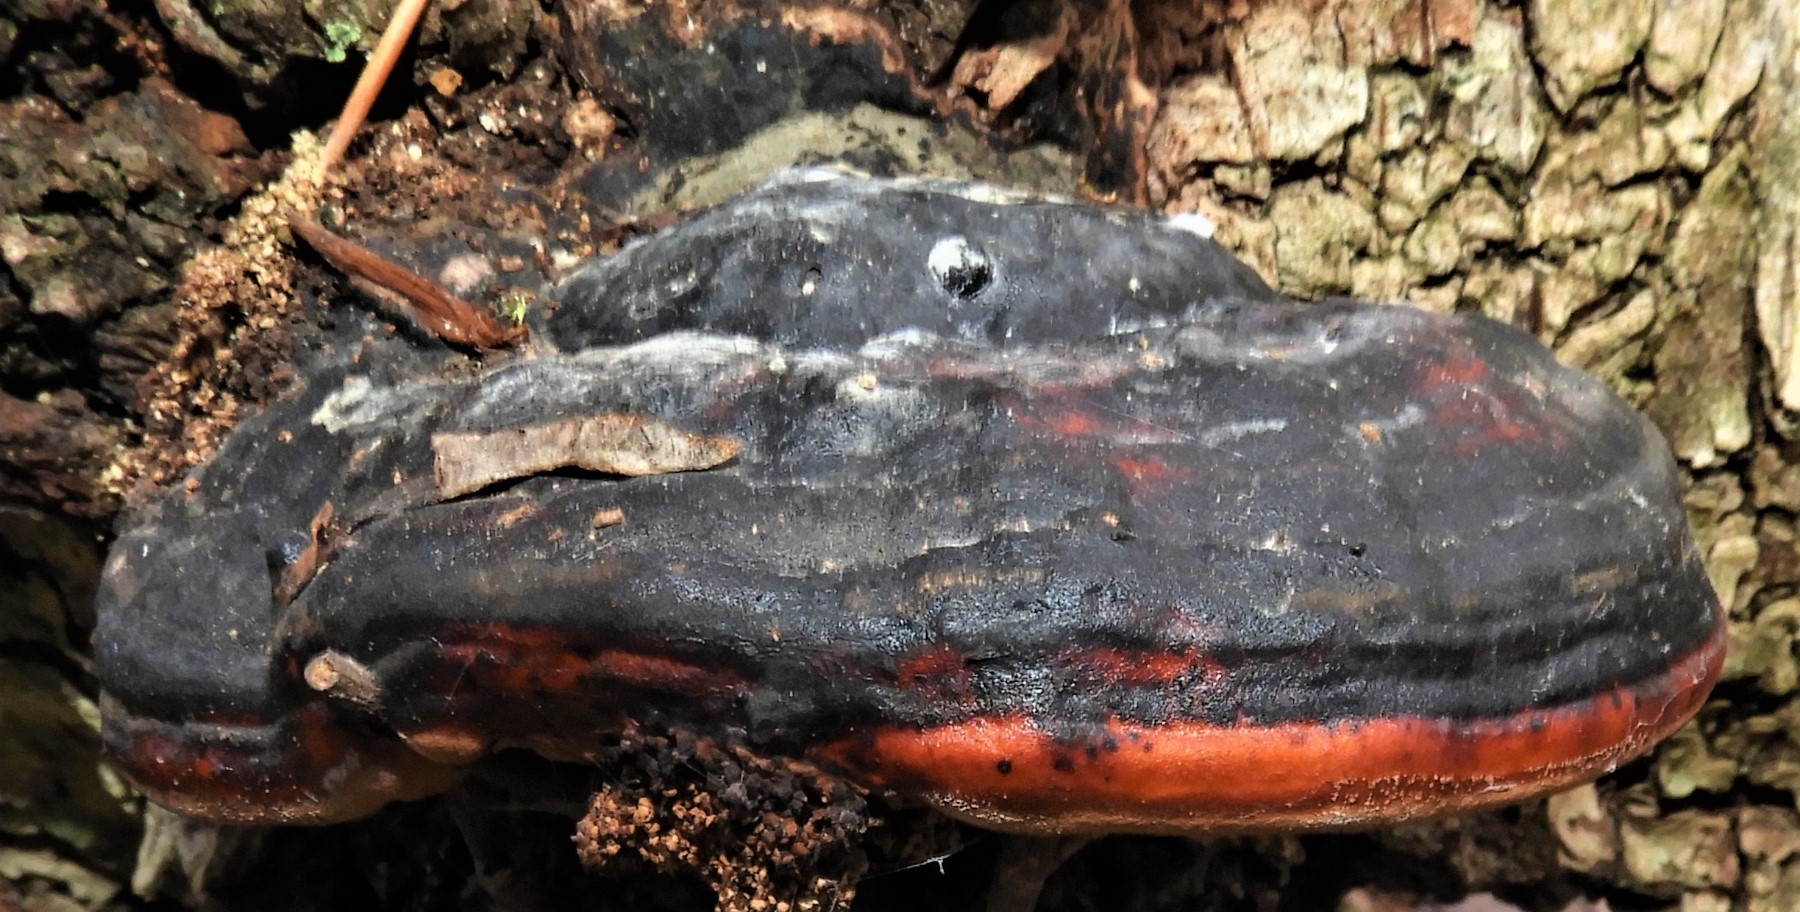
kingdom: Fungi
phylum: Basidiomycota
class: Agaricomycetes
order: Polyporales
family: Fomitopsidaceae
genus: Fomitopsis
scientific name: Fomitopsis pinicola
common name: randbæltet hovporesvamp
